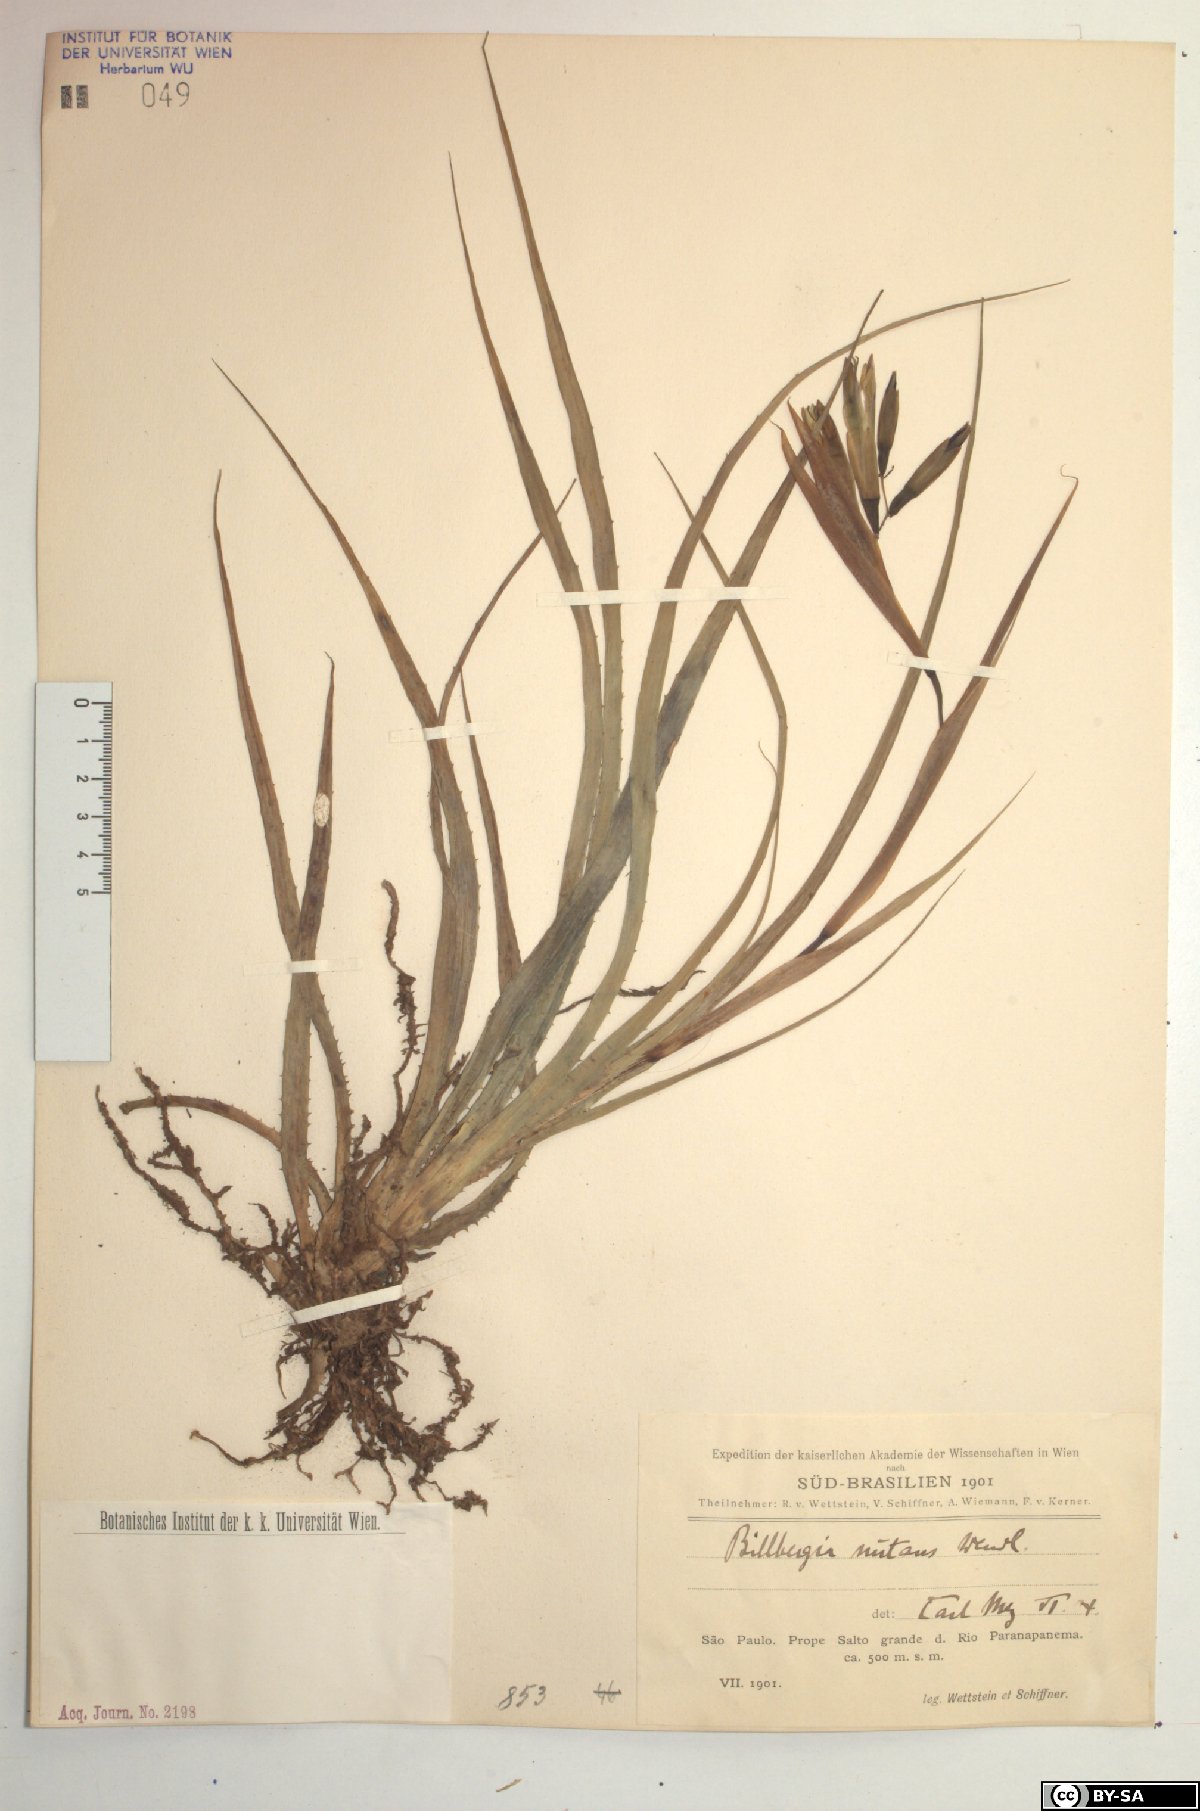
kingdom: Plantae
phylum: Tracheophyta
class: Liliopsida
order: Poales
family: Bromeliaceae
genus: Billbergia
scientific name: Billbergia nutans
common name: Friendship-plant
